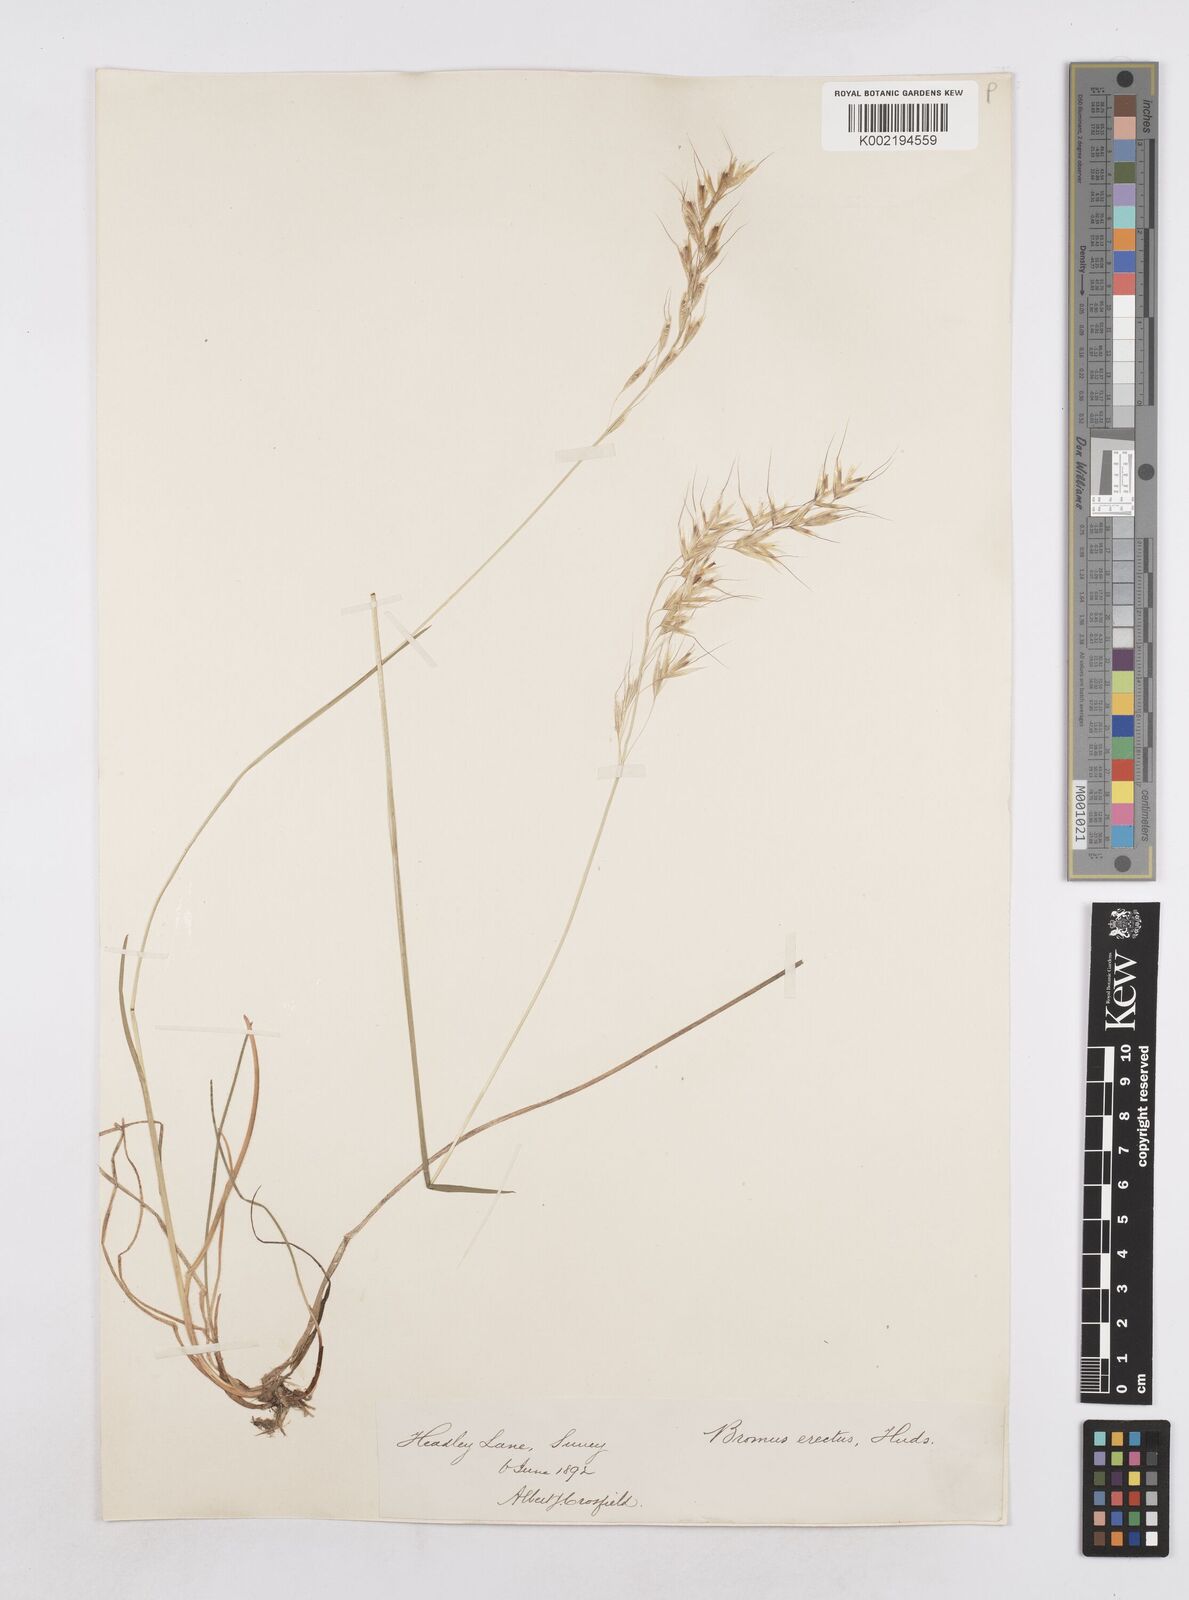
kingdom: Plantae
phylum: Tracheophyta
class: Liliopsida
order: Poales
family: Poaceae
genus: Avenula
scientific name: Avenula pubescens
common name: Downy alpine oatgrass
